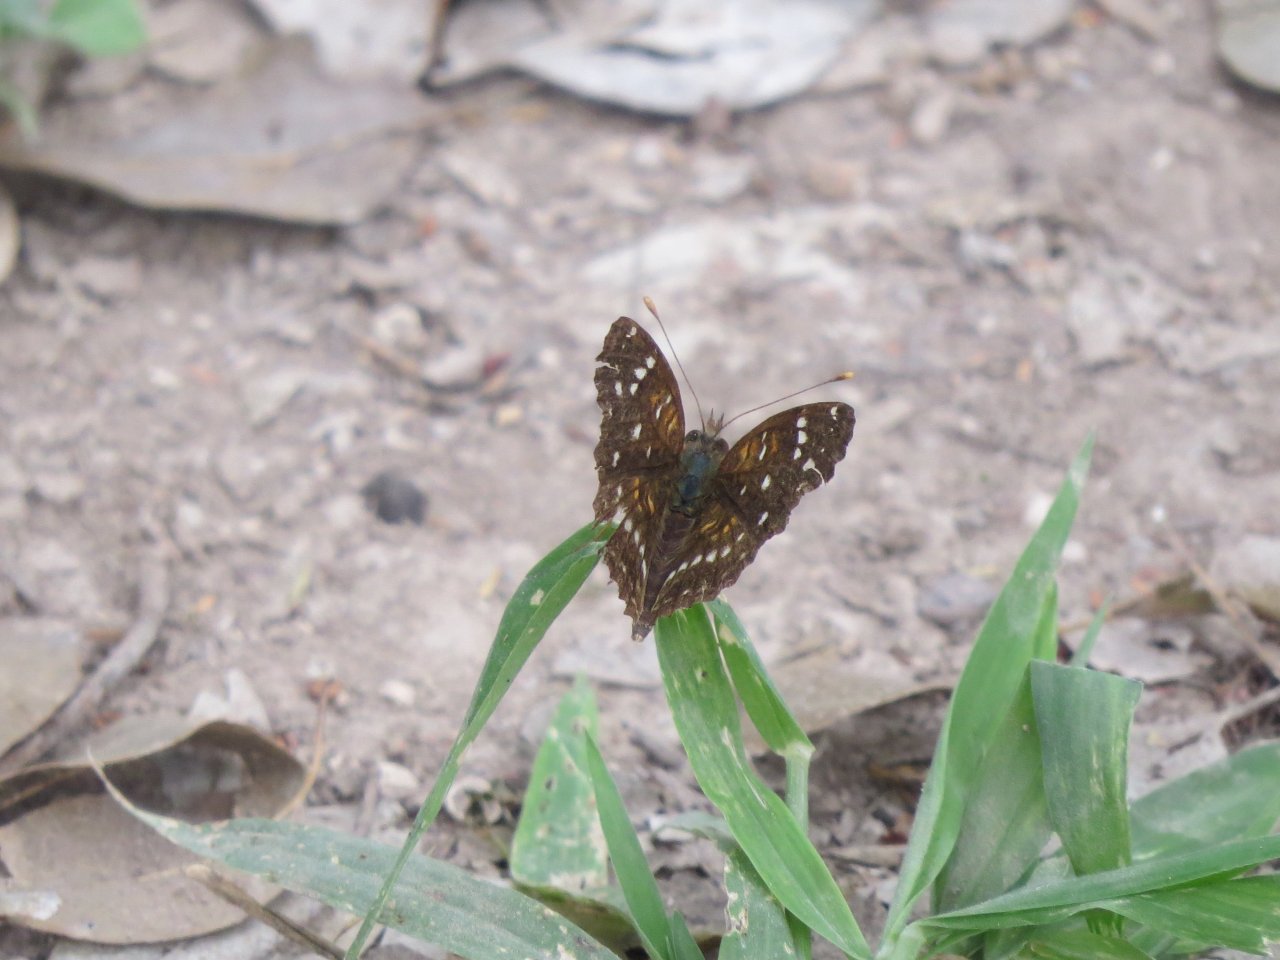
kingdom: Animalia
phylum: Arthropoda
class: Insecta
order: Lepidoptera
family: Nymphalidae
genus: Anthanassa
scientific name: Anthanassa texana
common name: Texan Crescent
